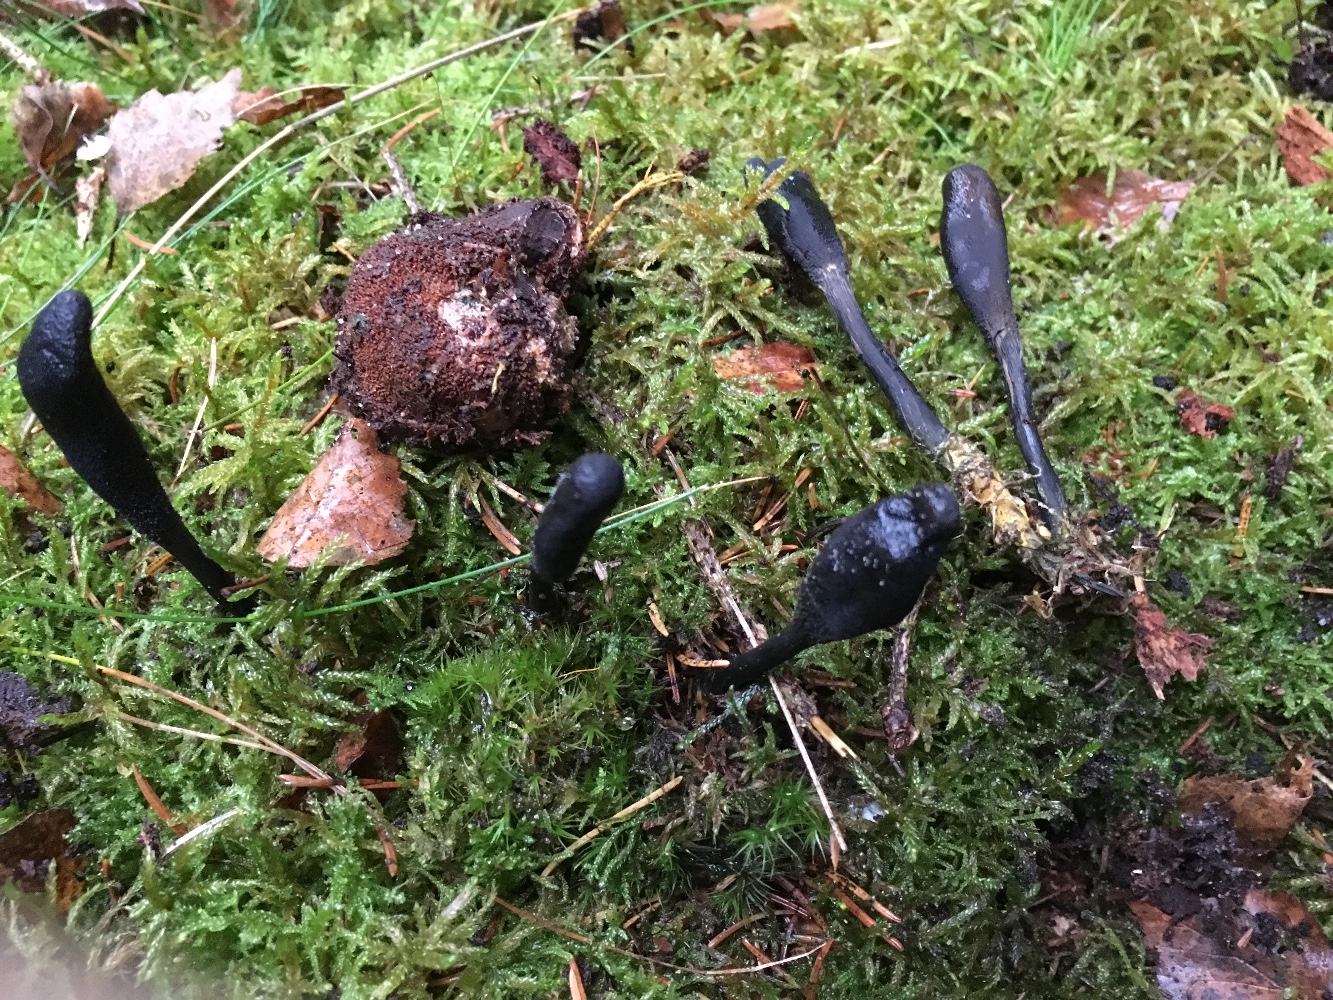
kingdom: Fungi
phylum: Ascomycota
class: Sordariomycetes
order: Hypocreales
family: Ophiocordycipitaceae
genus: Tolypocladium
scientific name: Tolypocladium ophioglossoides
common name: slank snyltekølle
